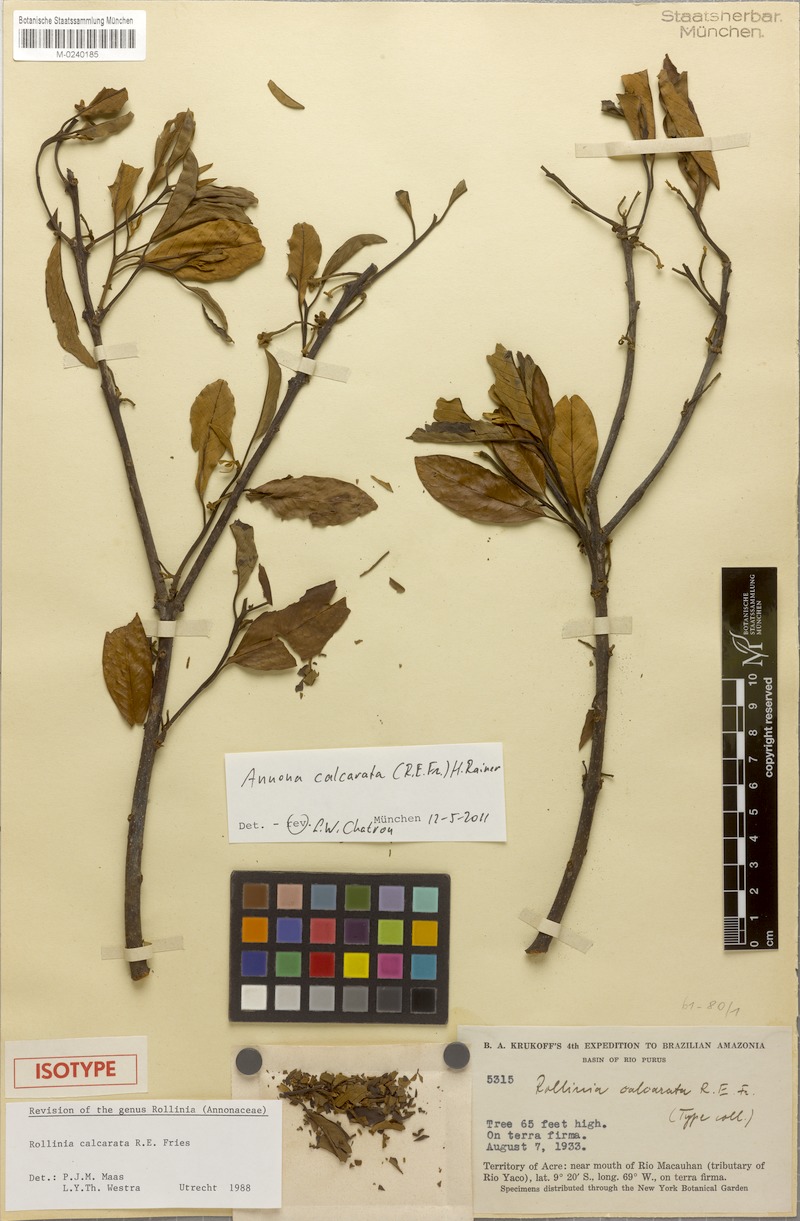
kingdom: Plantae
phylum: Tracheophyta
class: Magnoliopsida
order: Magnoliales
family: Annonaceae
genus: Annona
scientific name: Annona calcarata
